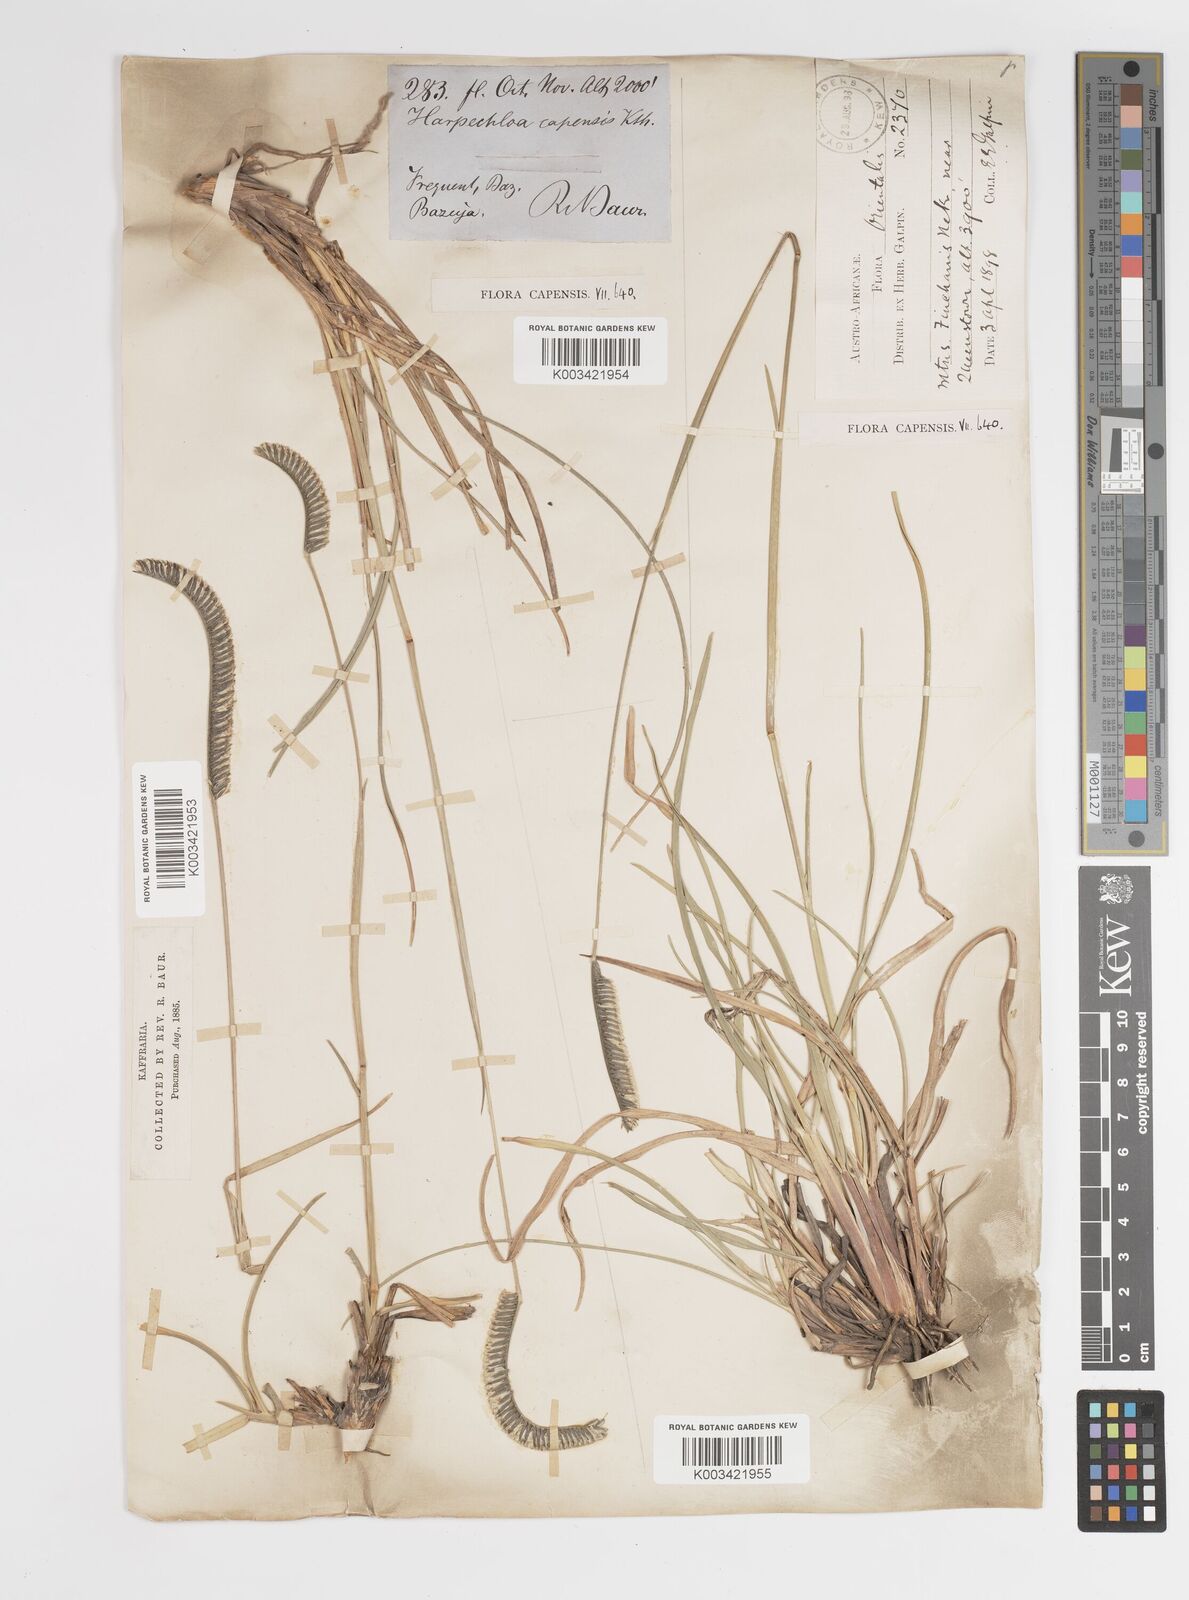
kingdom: Plantae
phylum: Tracheophyta
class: Liliopsida
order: Poales
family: Poaceae
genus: Harpochloa
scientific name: Harpochloa falx
